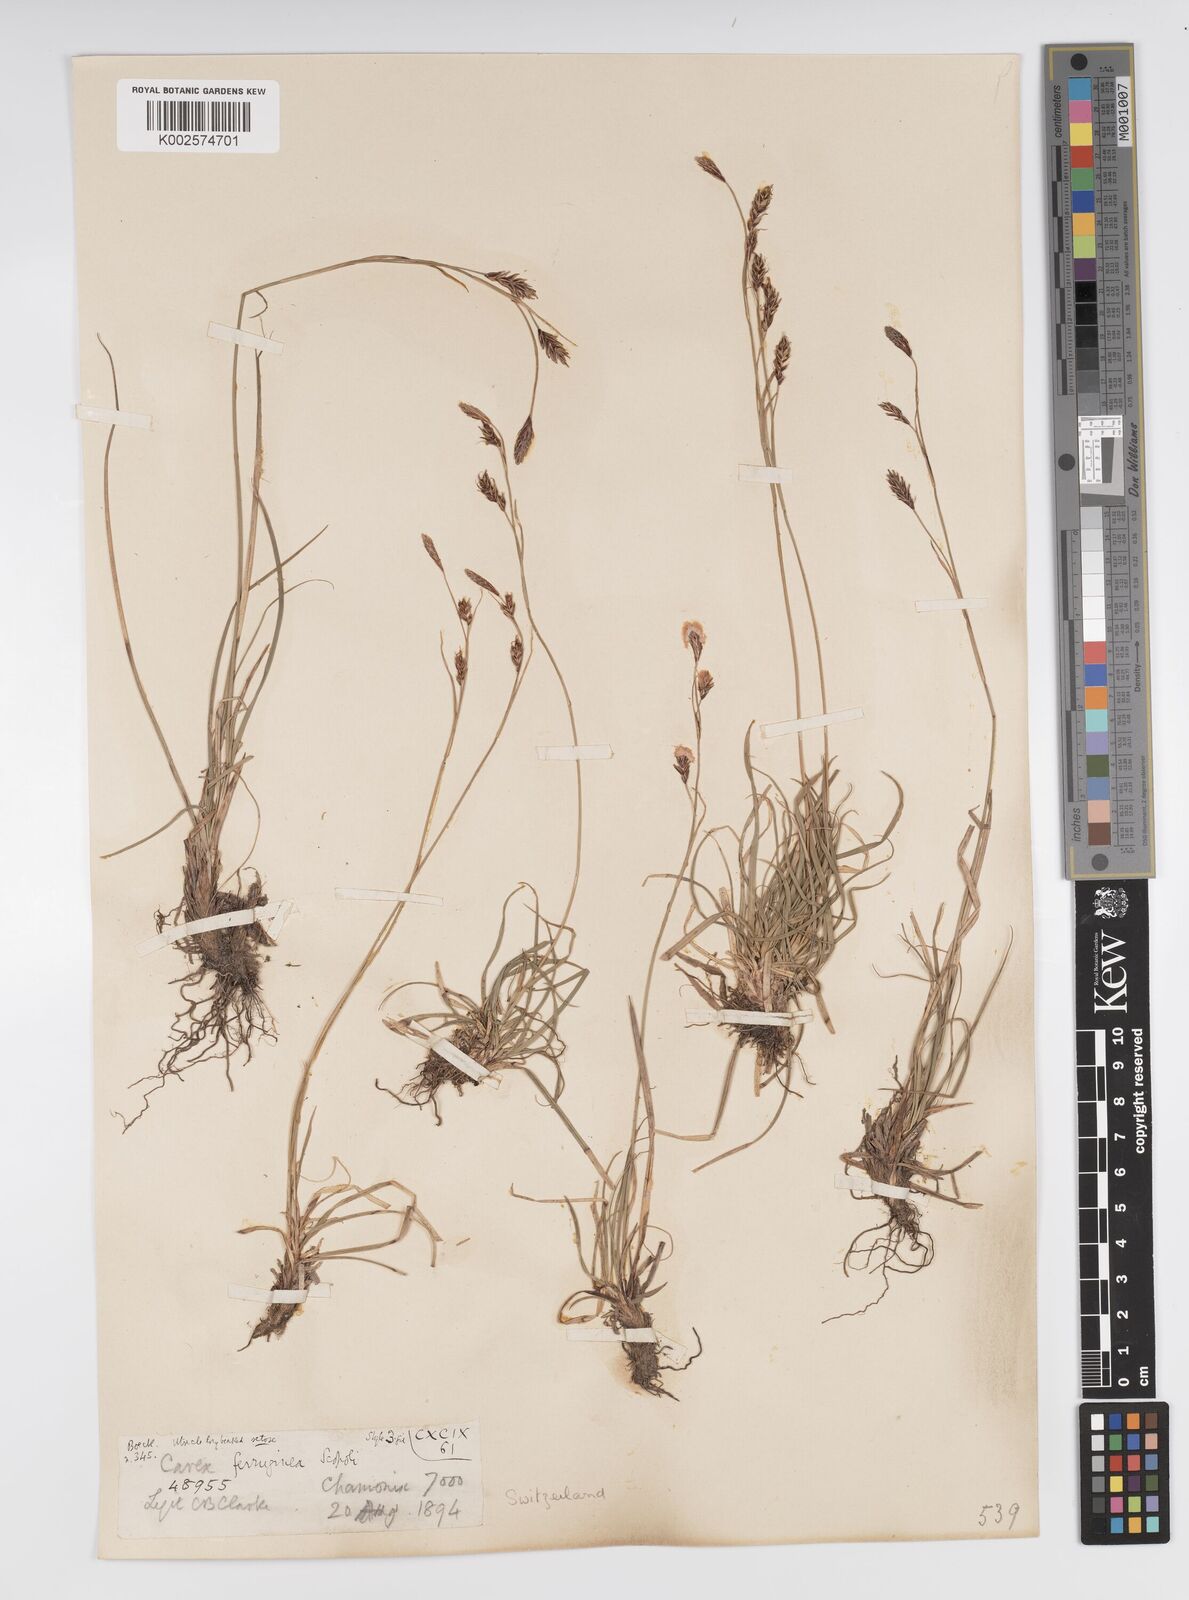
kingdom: Plantae
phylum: Tracheophyta
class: Liliopsida
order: Poales
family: Cyperaceae
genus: Carex
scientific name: Carex ferruginea
